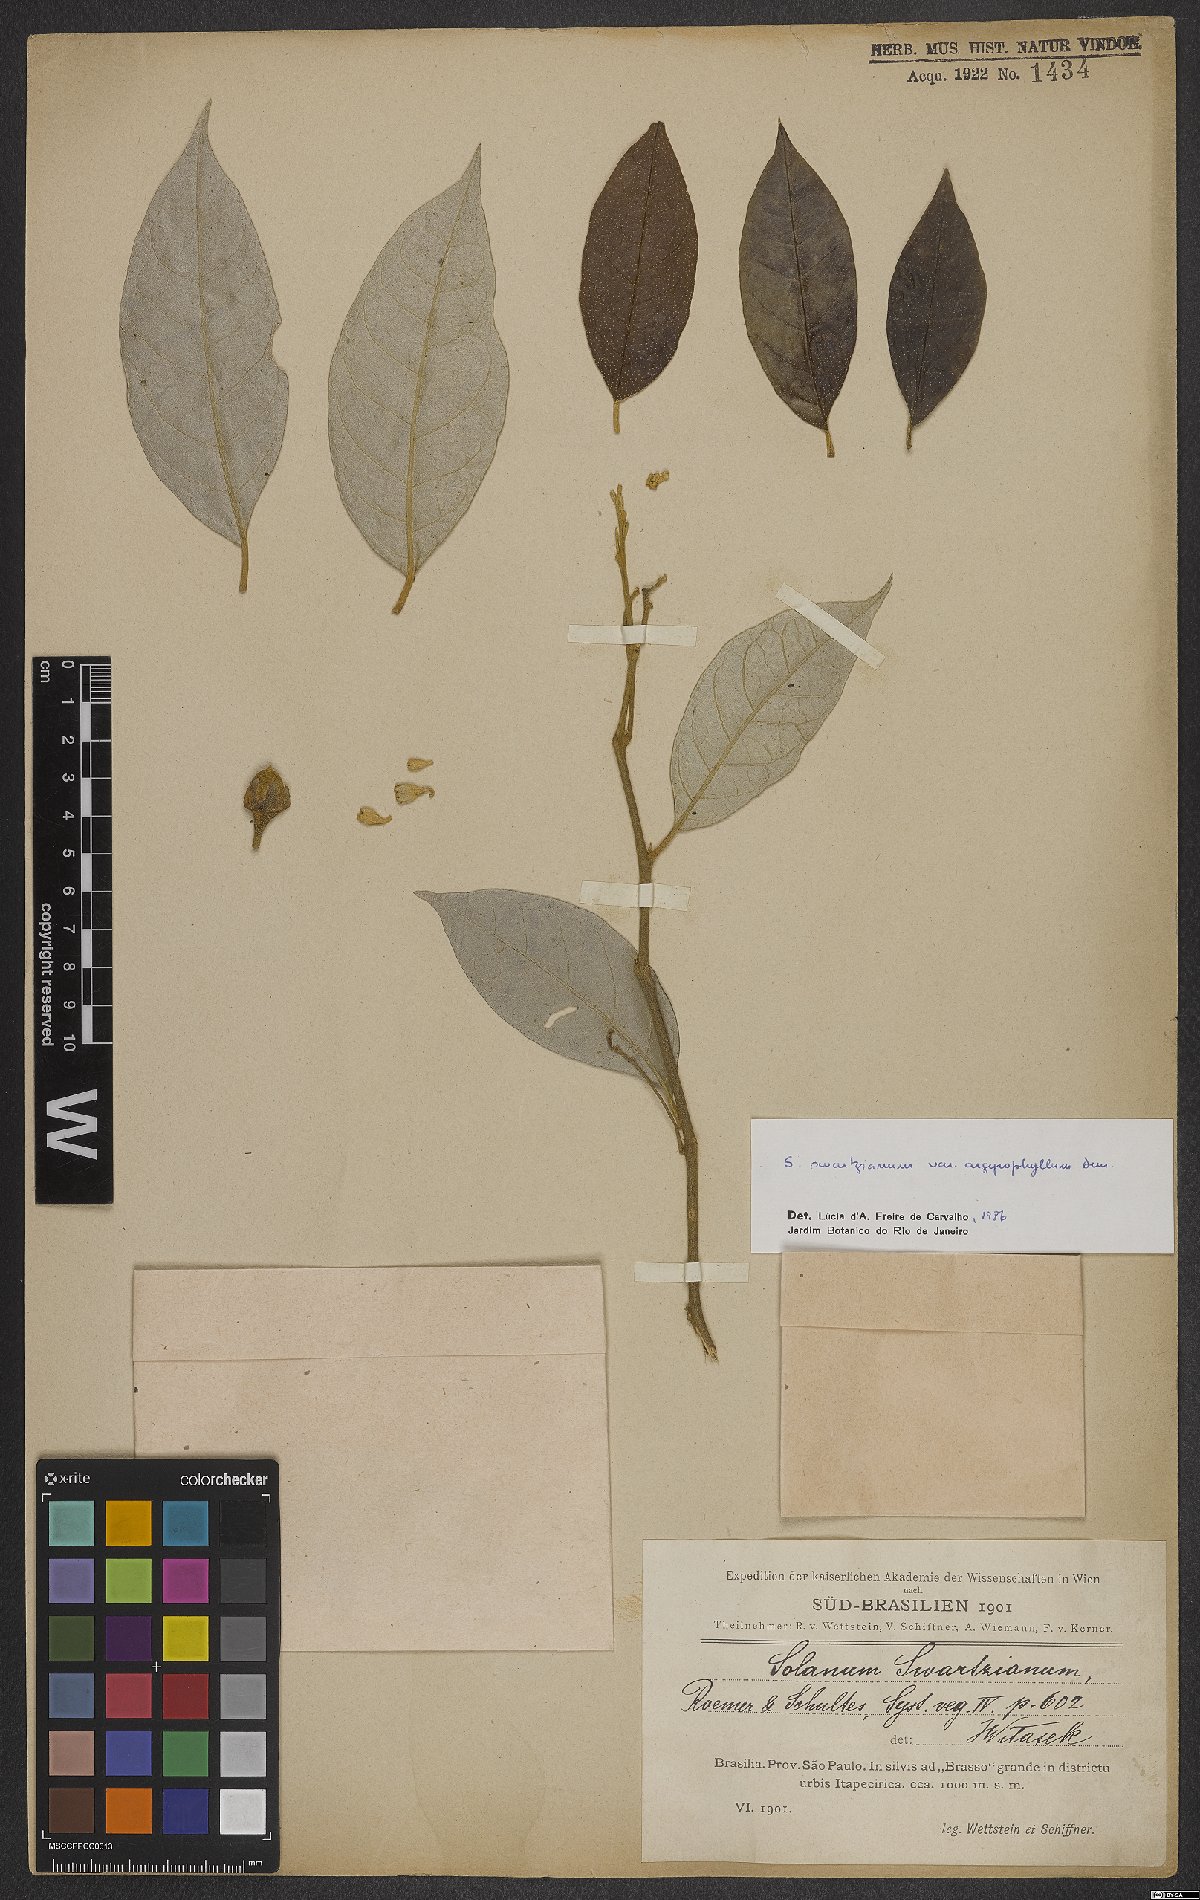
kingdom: Plantae
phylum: Tracheophyta
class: Magnoliopsida
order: Solanales
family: Solanaceae
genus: Solanum
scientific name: Solanum swartzianum
